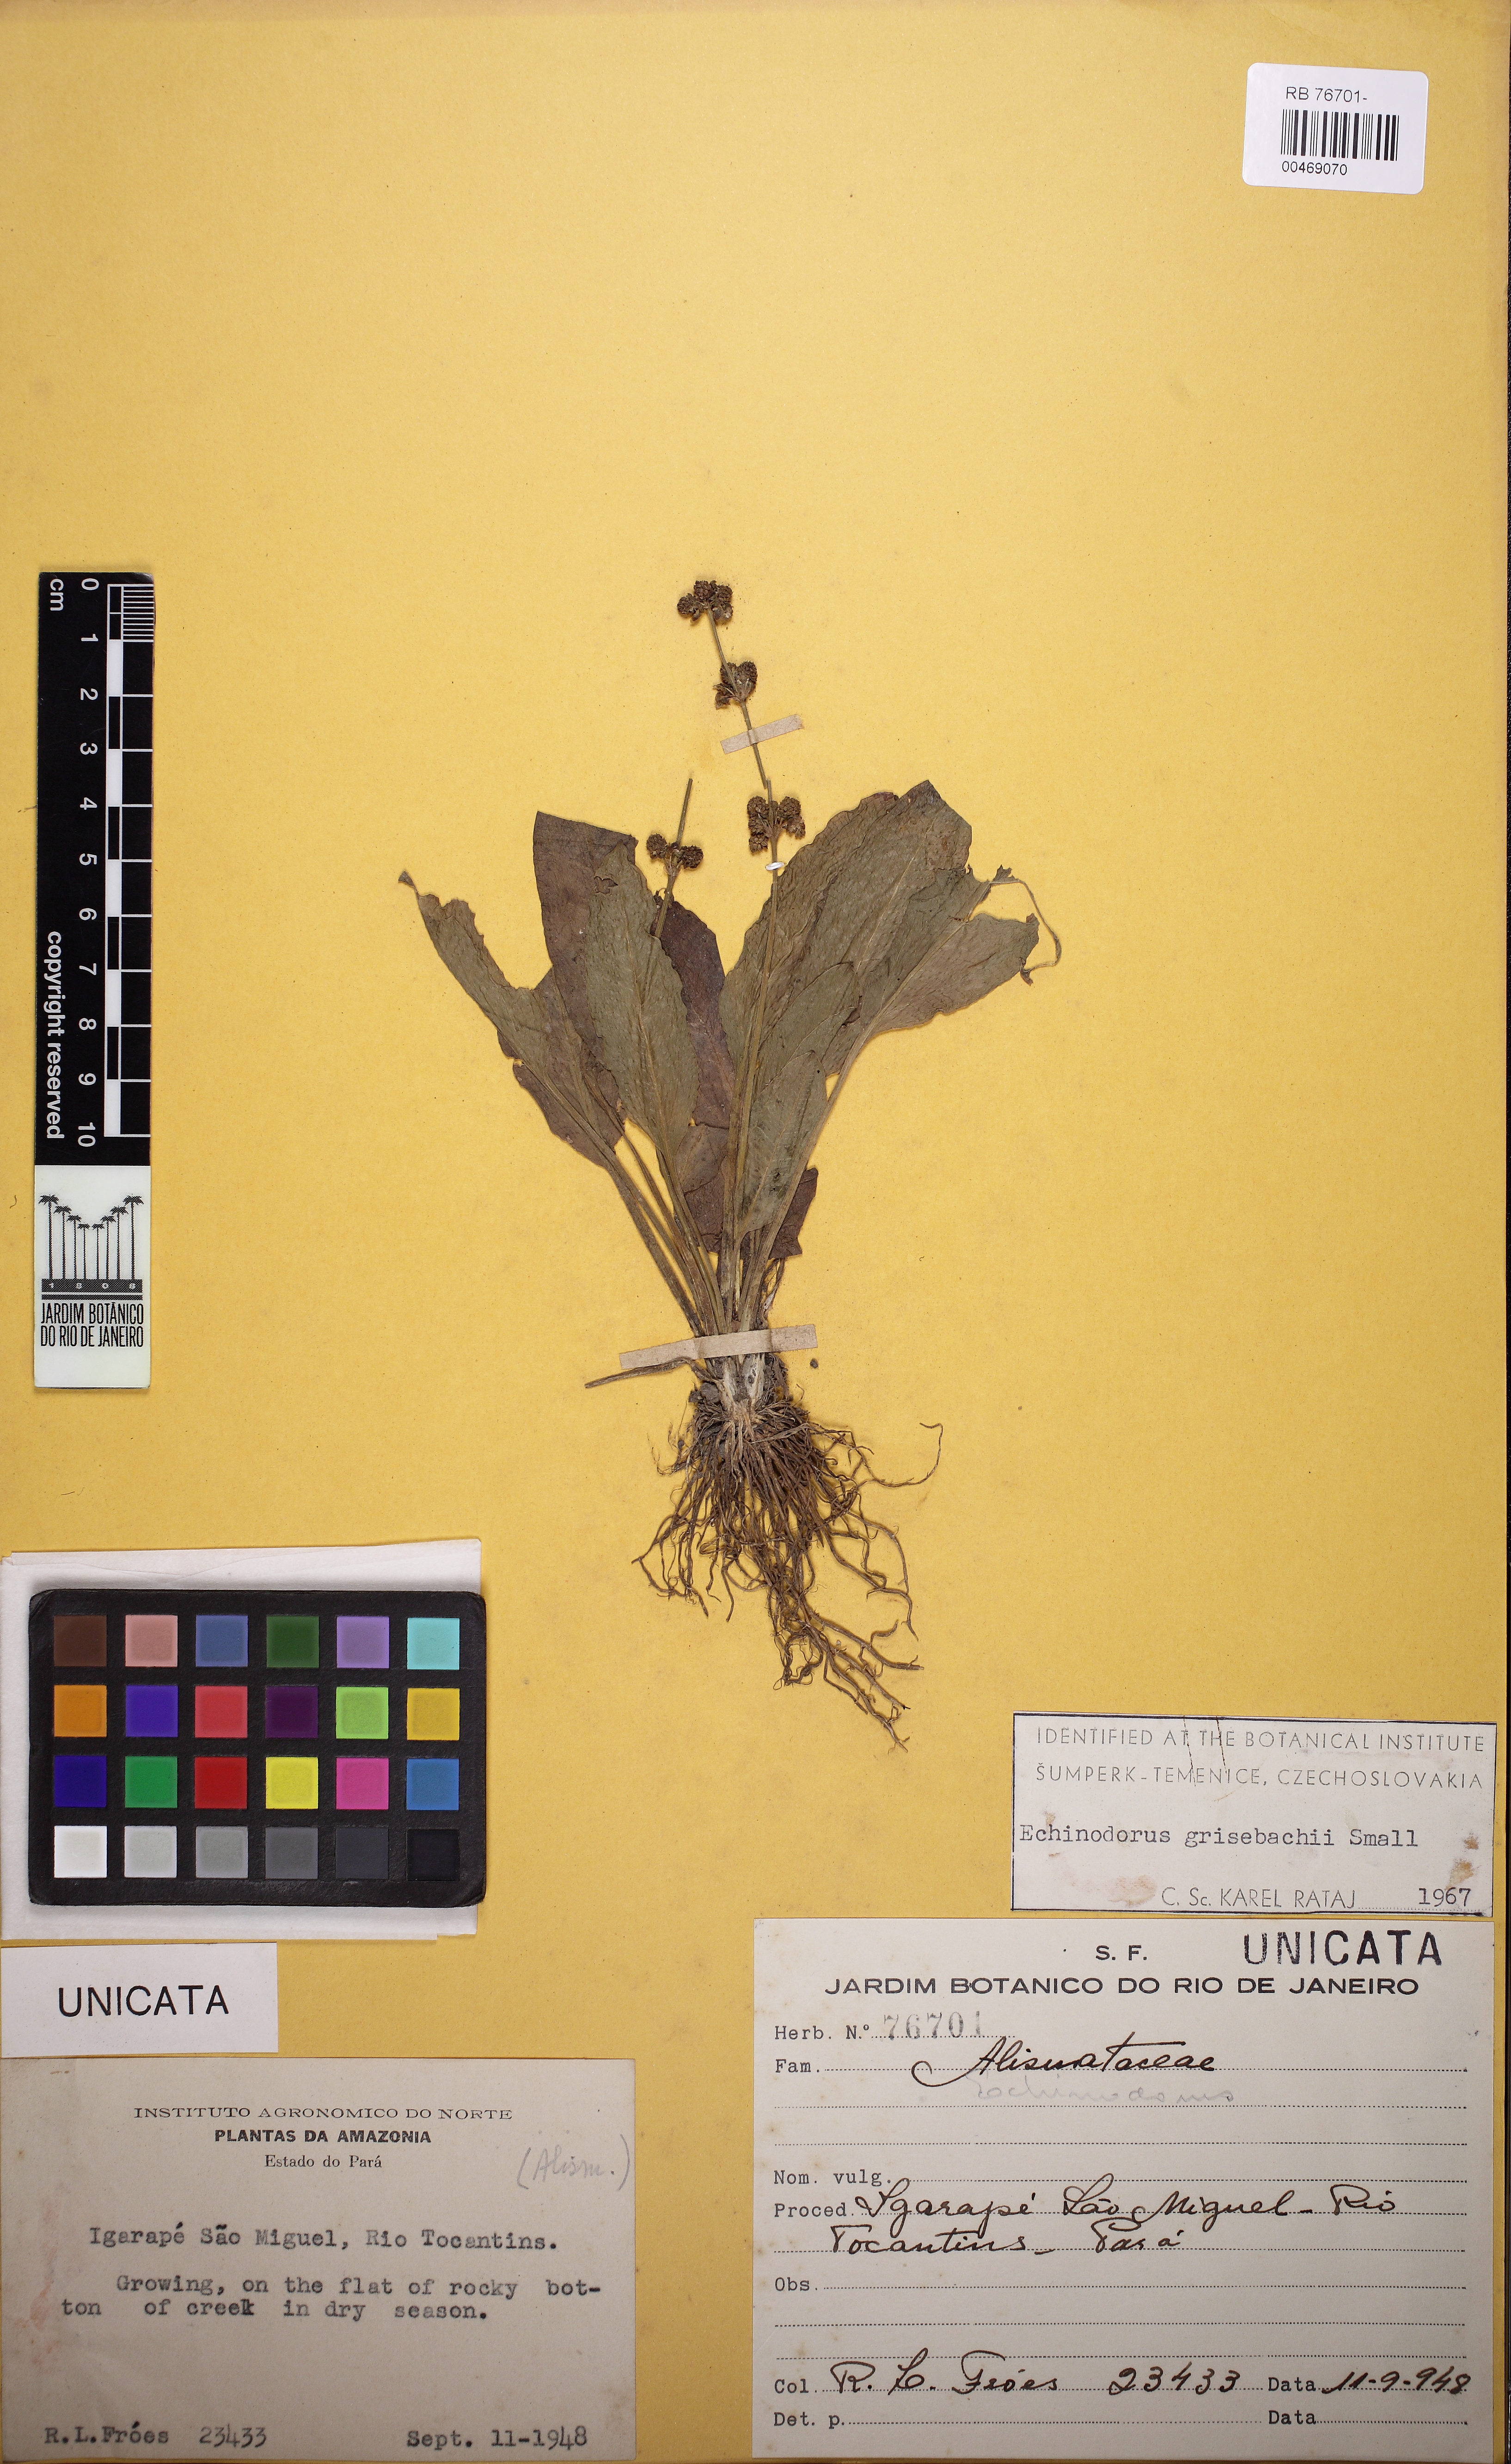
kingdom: Plantae
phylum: Tracheophyta
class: Liliopsida
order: Alismatales
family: Alismataceae
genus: Aquarius
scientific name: Aquarius grisebachii
